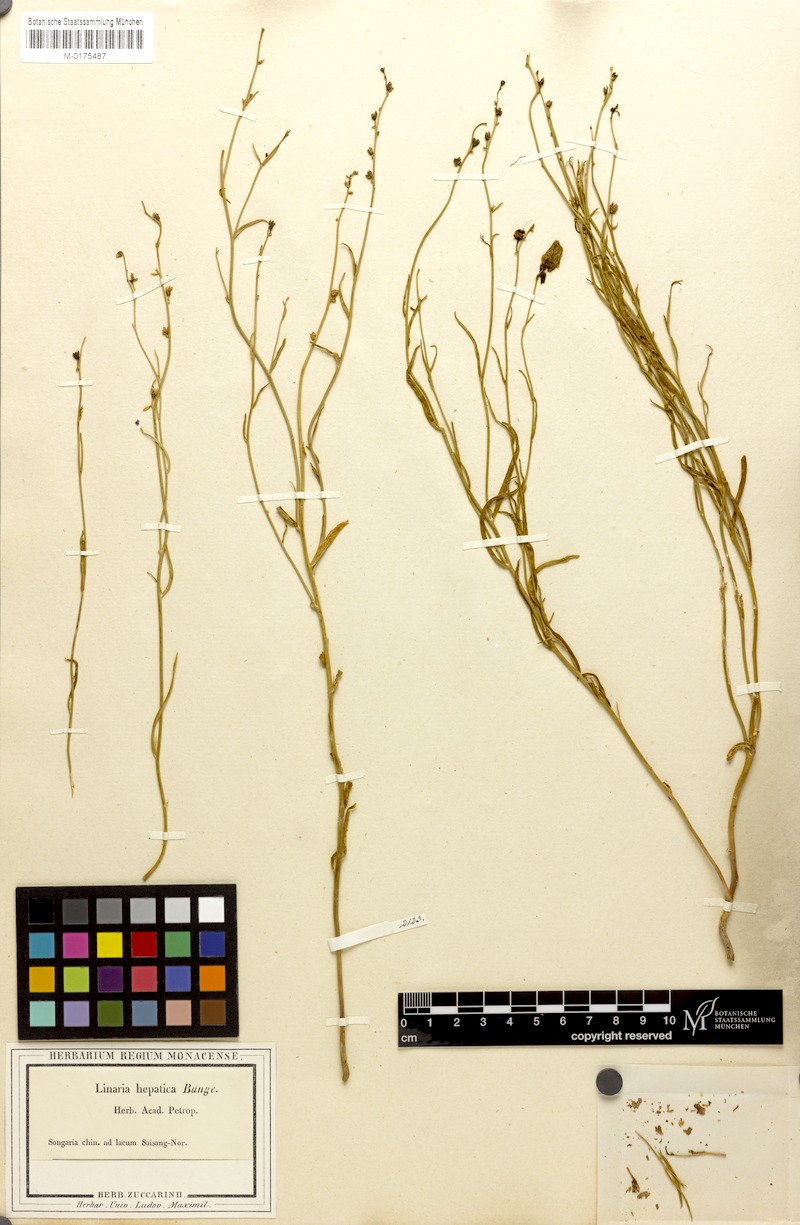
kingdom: Plantae
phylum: Tracheophyta
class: Magnoliopsida
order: Lamiales
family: Plantaginaceae
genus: Linaria
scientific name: Linaria hepatica
